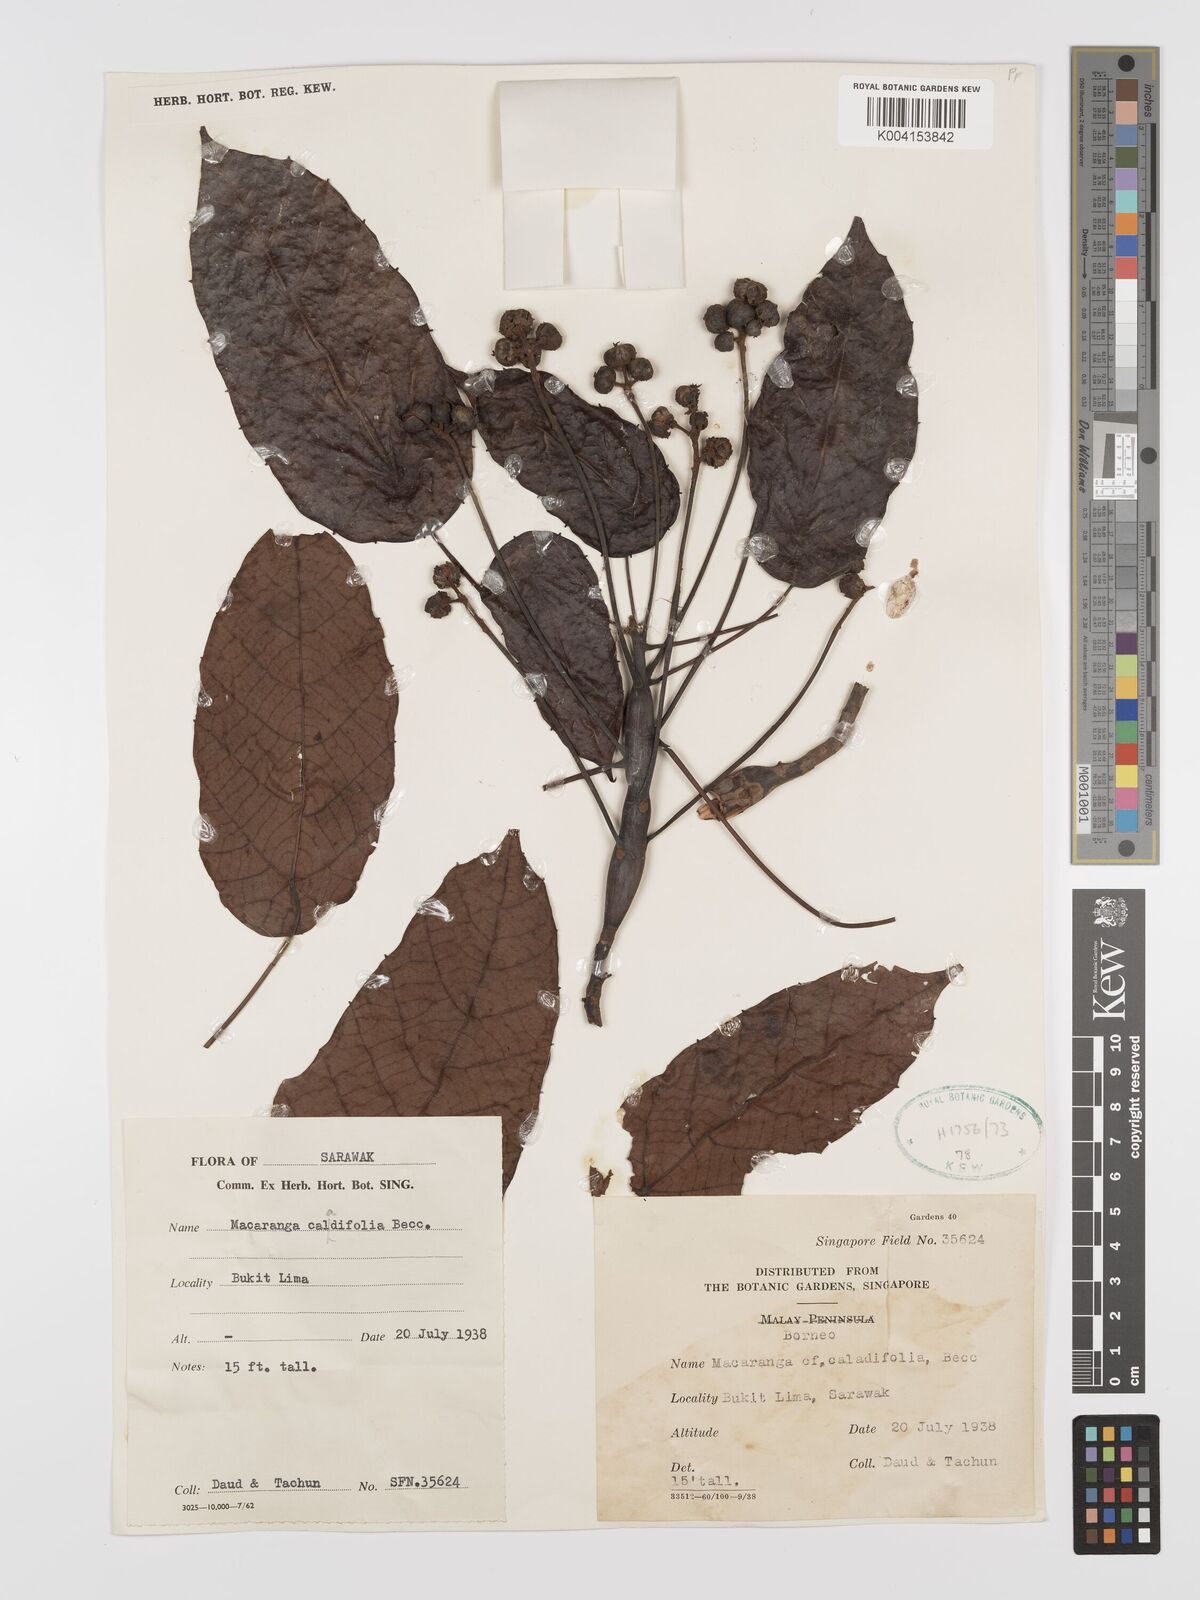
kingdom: Plantae
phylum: Tracheophyta
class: Magnoliopsida
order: Malpighiales
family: Euphorbiaceae
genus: Macaranga
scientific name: Macaranga caladiifolia
